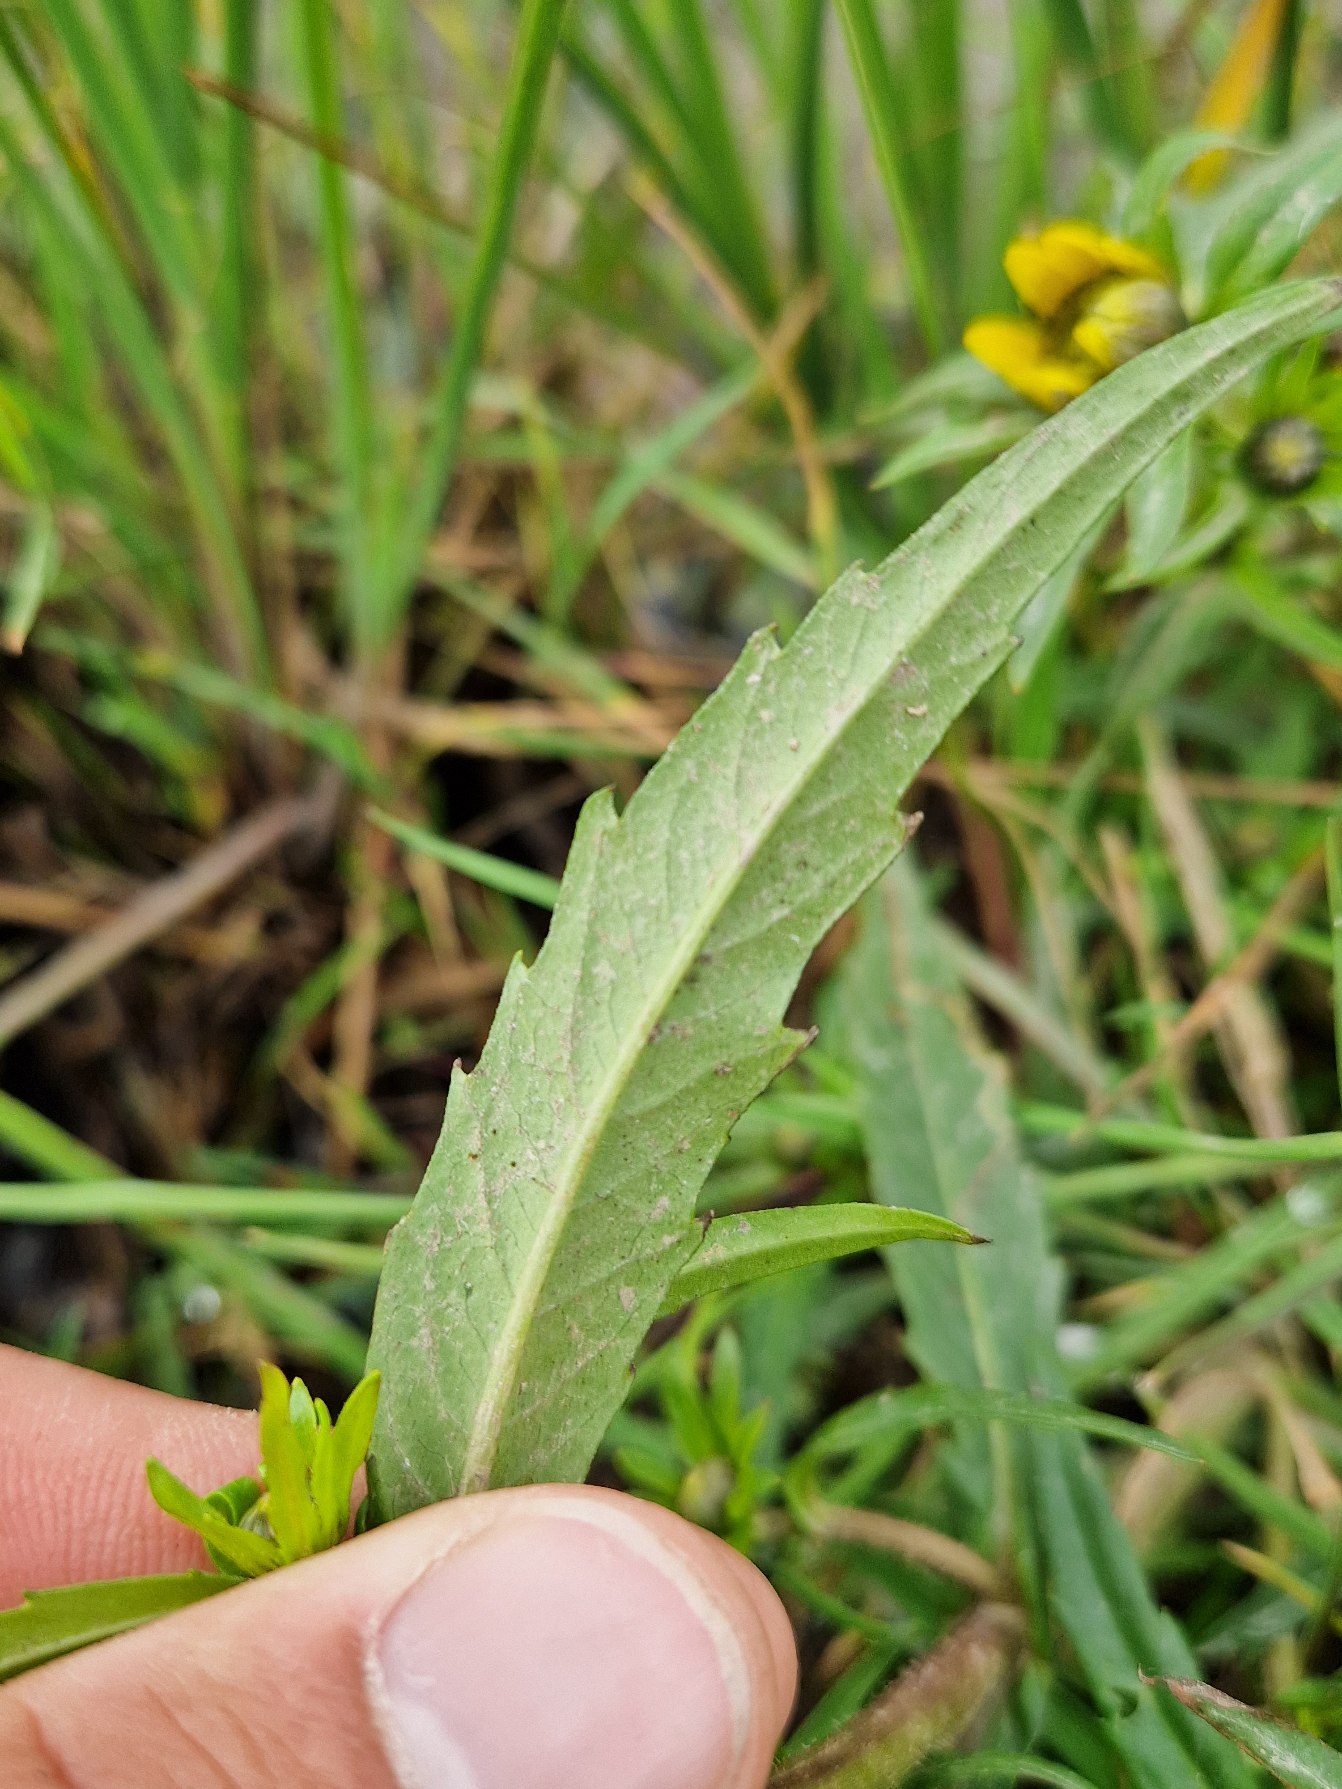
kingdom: Plantae
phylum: Tracheophyta
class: Magnoliopsida
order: Asterales
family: Asteraceae
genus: Bidens
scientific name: Bidens cernua
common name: Nikkende brøndsel
